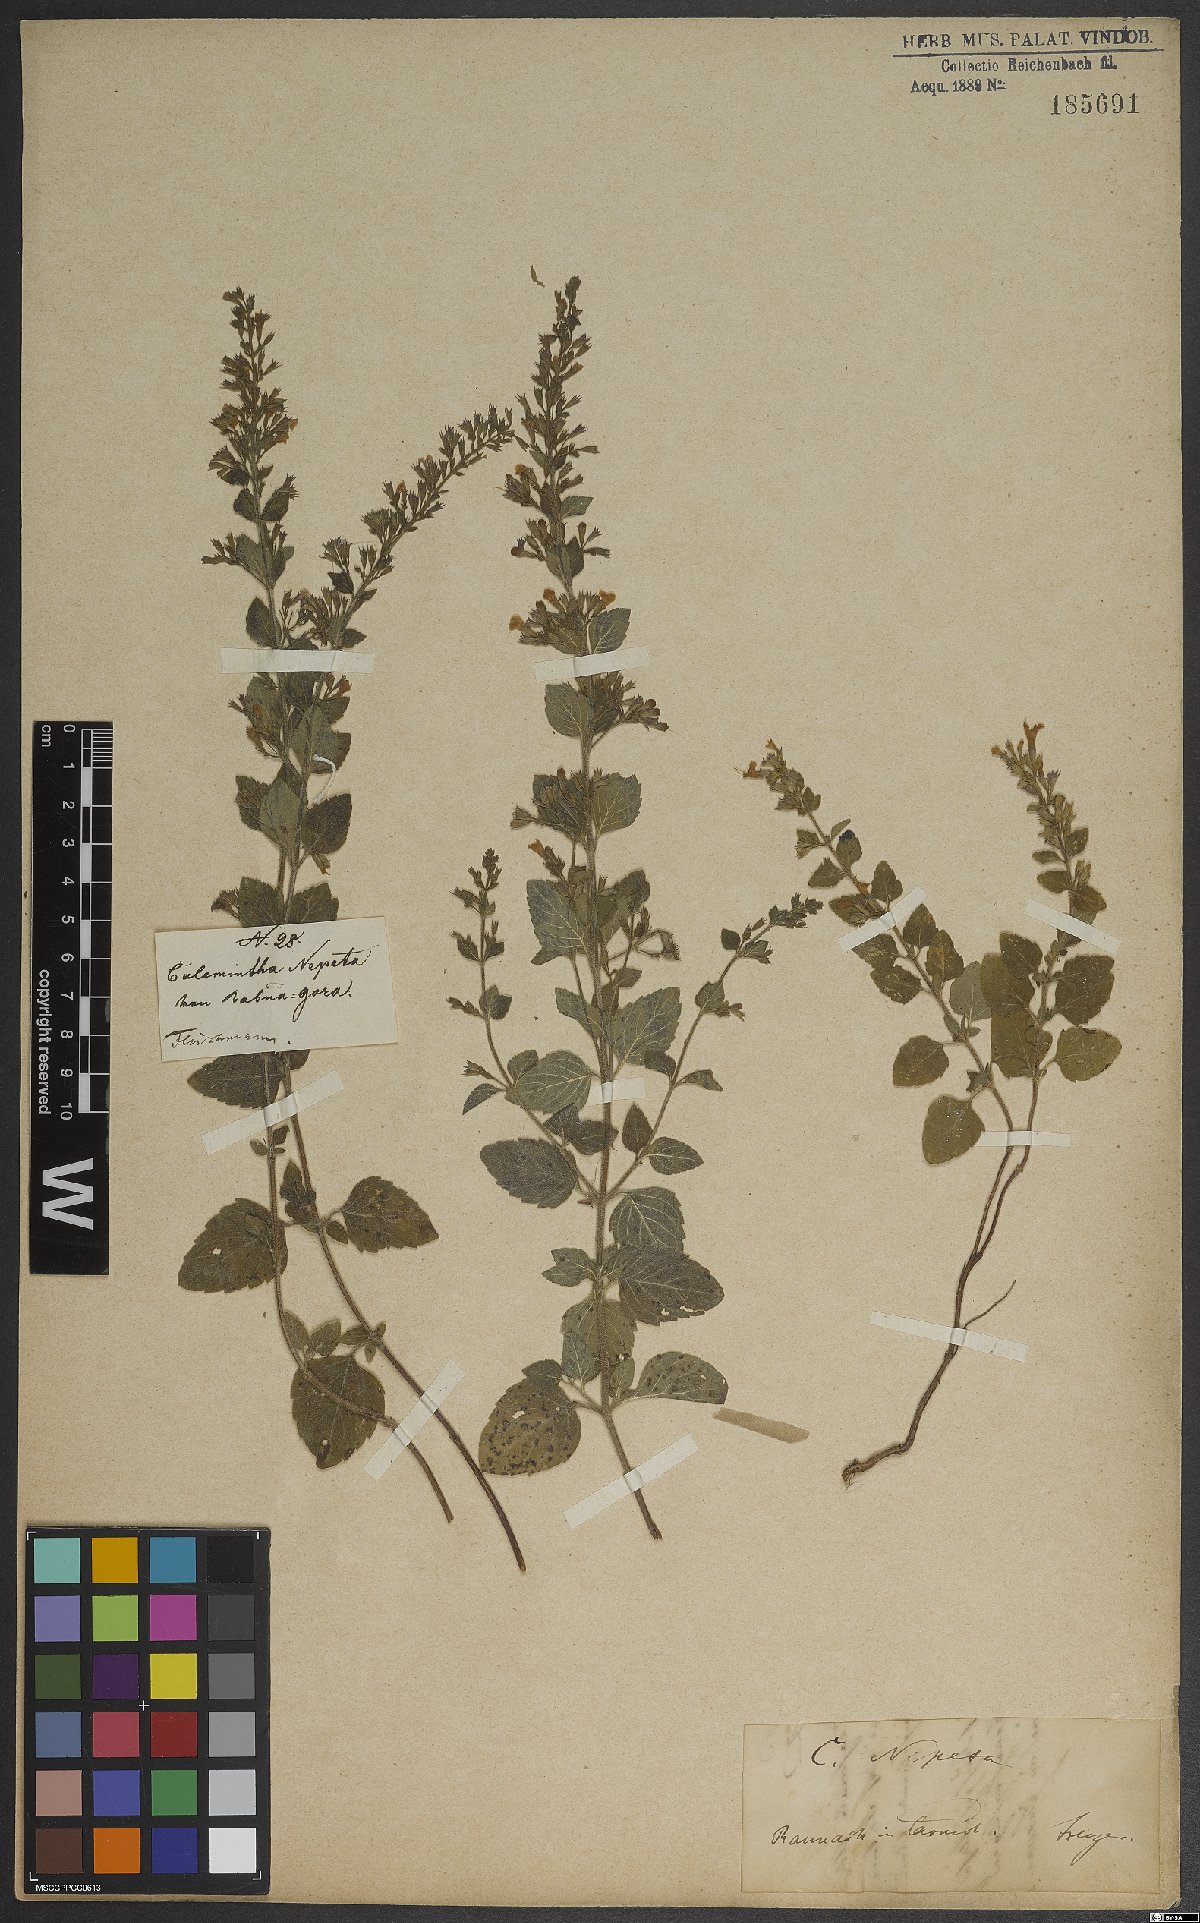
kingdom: Plantae
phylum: Tracheophyta
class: Magnoliopsida
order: Lamiales
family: Lamiaceae
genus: Clinopodium
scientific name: Clinopodium nepeta
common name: Lesser calamint
